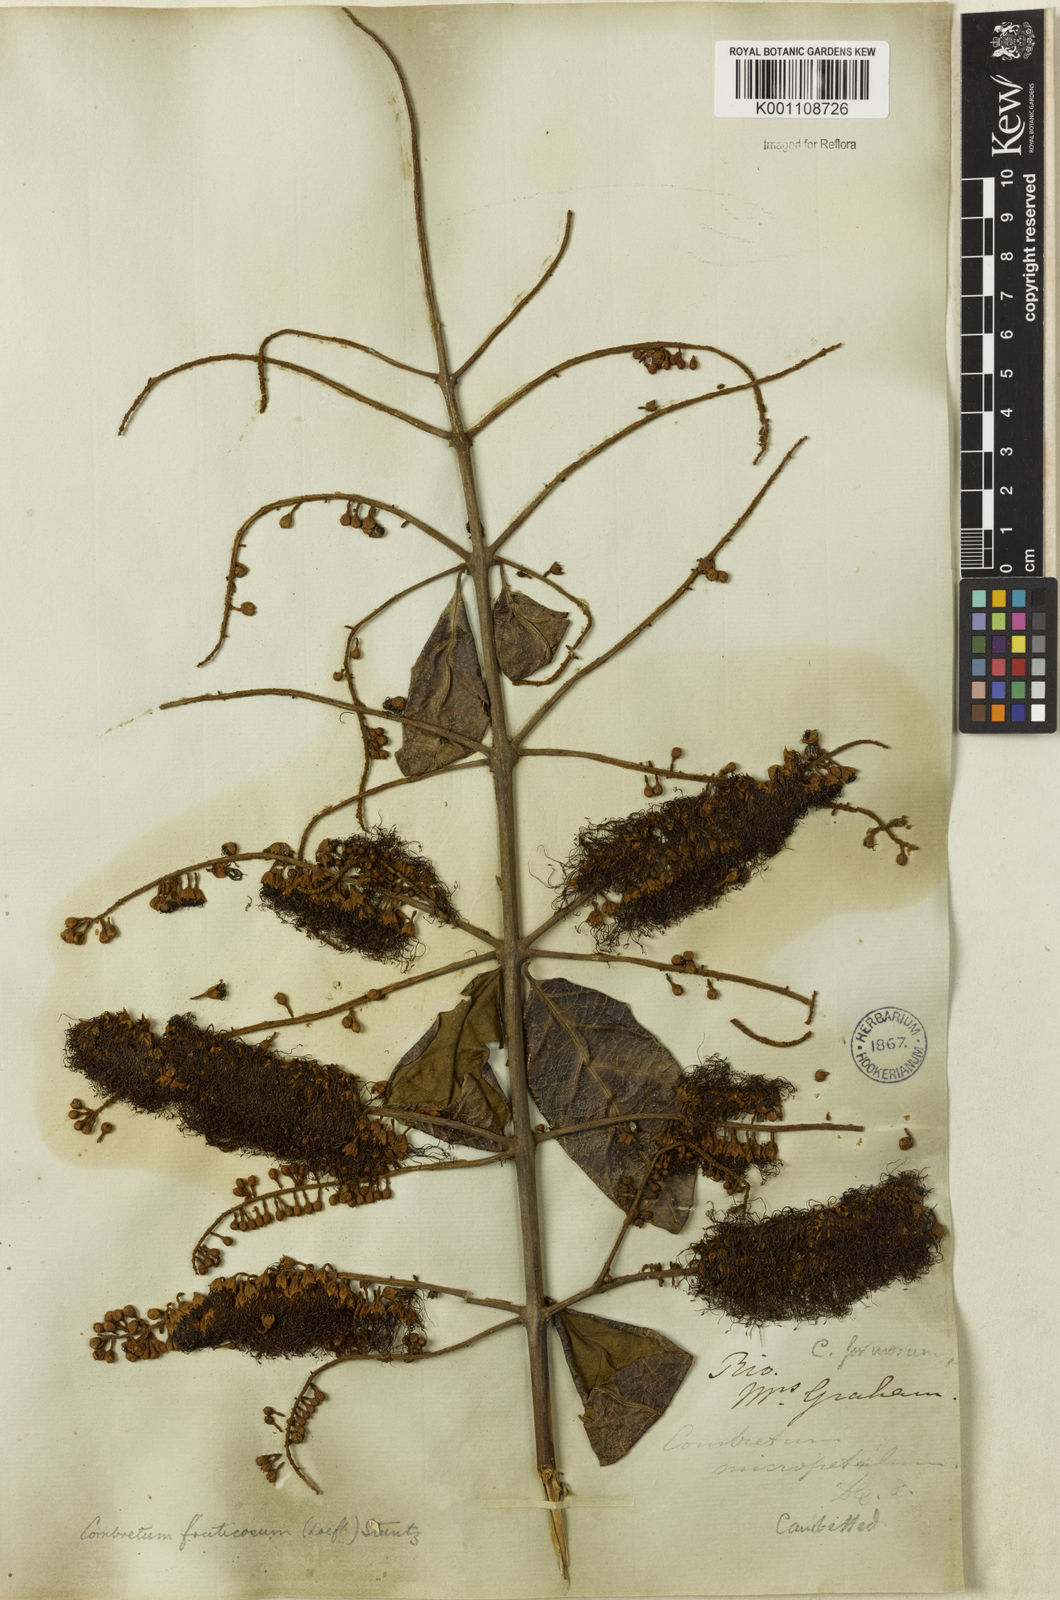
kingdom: Plantae
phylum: Tracheophyta
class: Magnoliopsida
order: Myrtales
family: Combretaceae
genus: Combretum
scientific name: Combretum fruticosum
